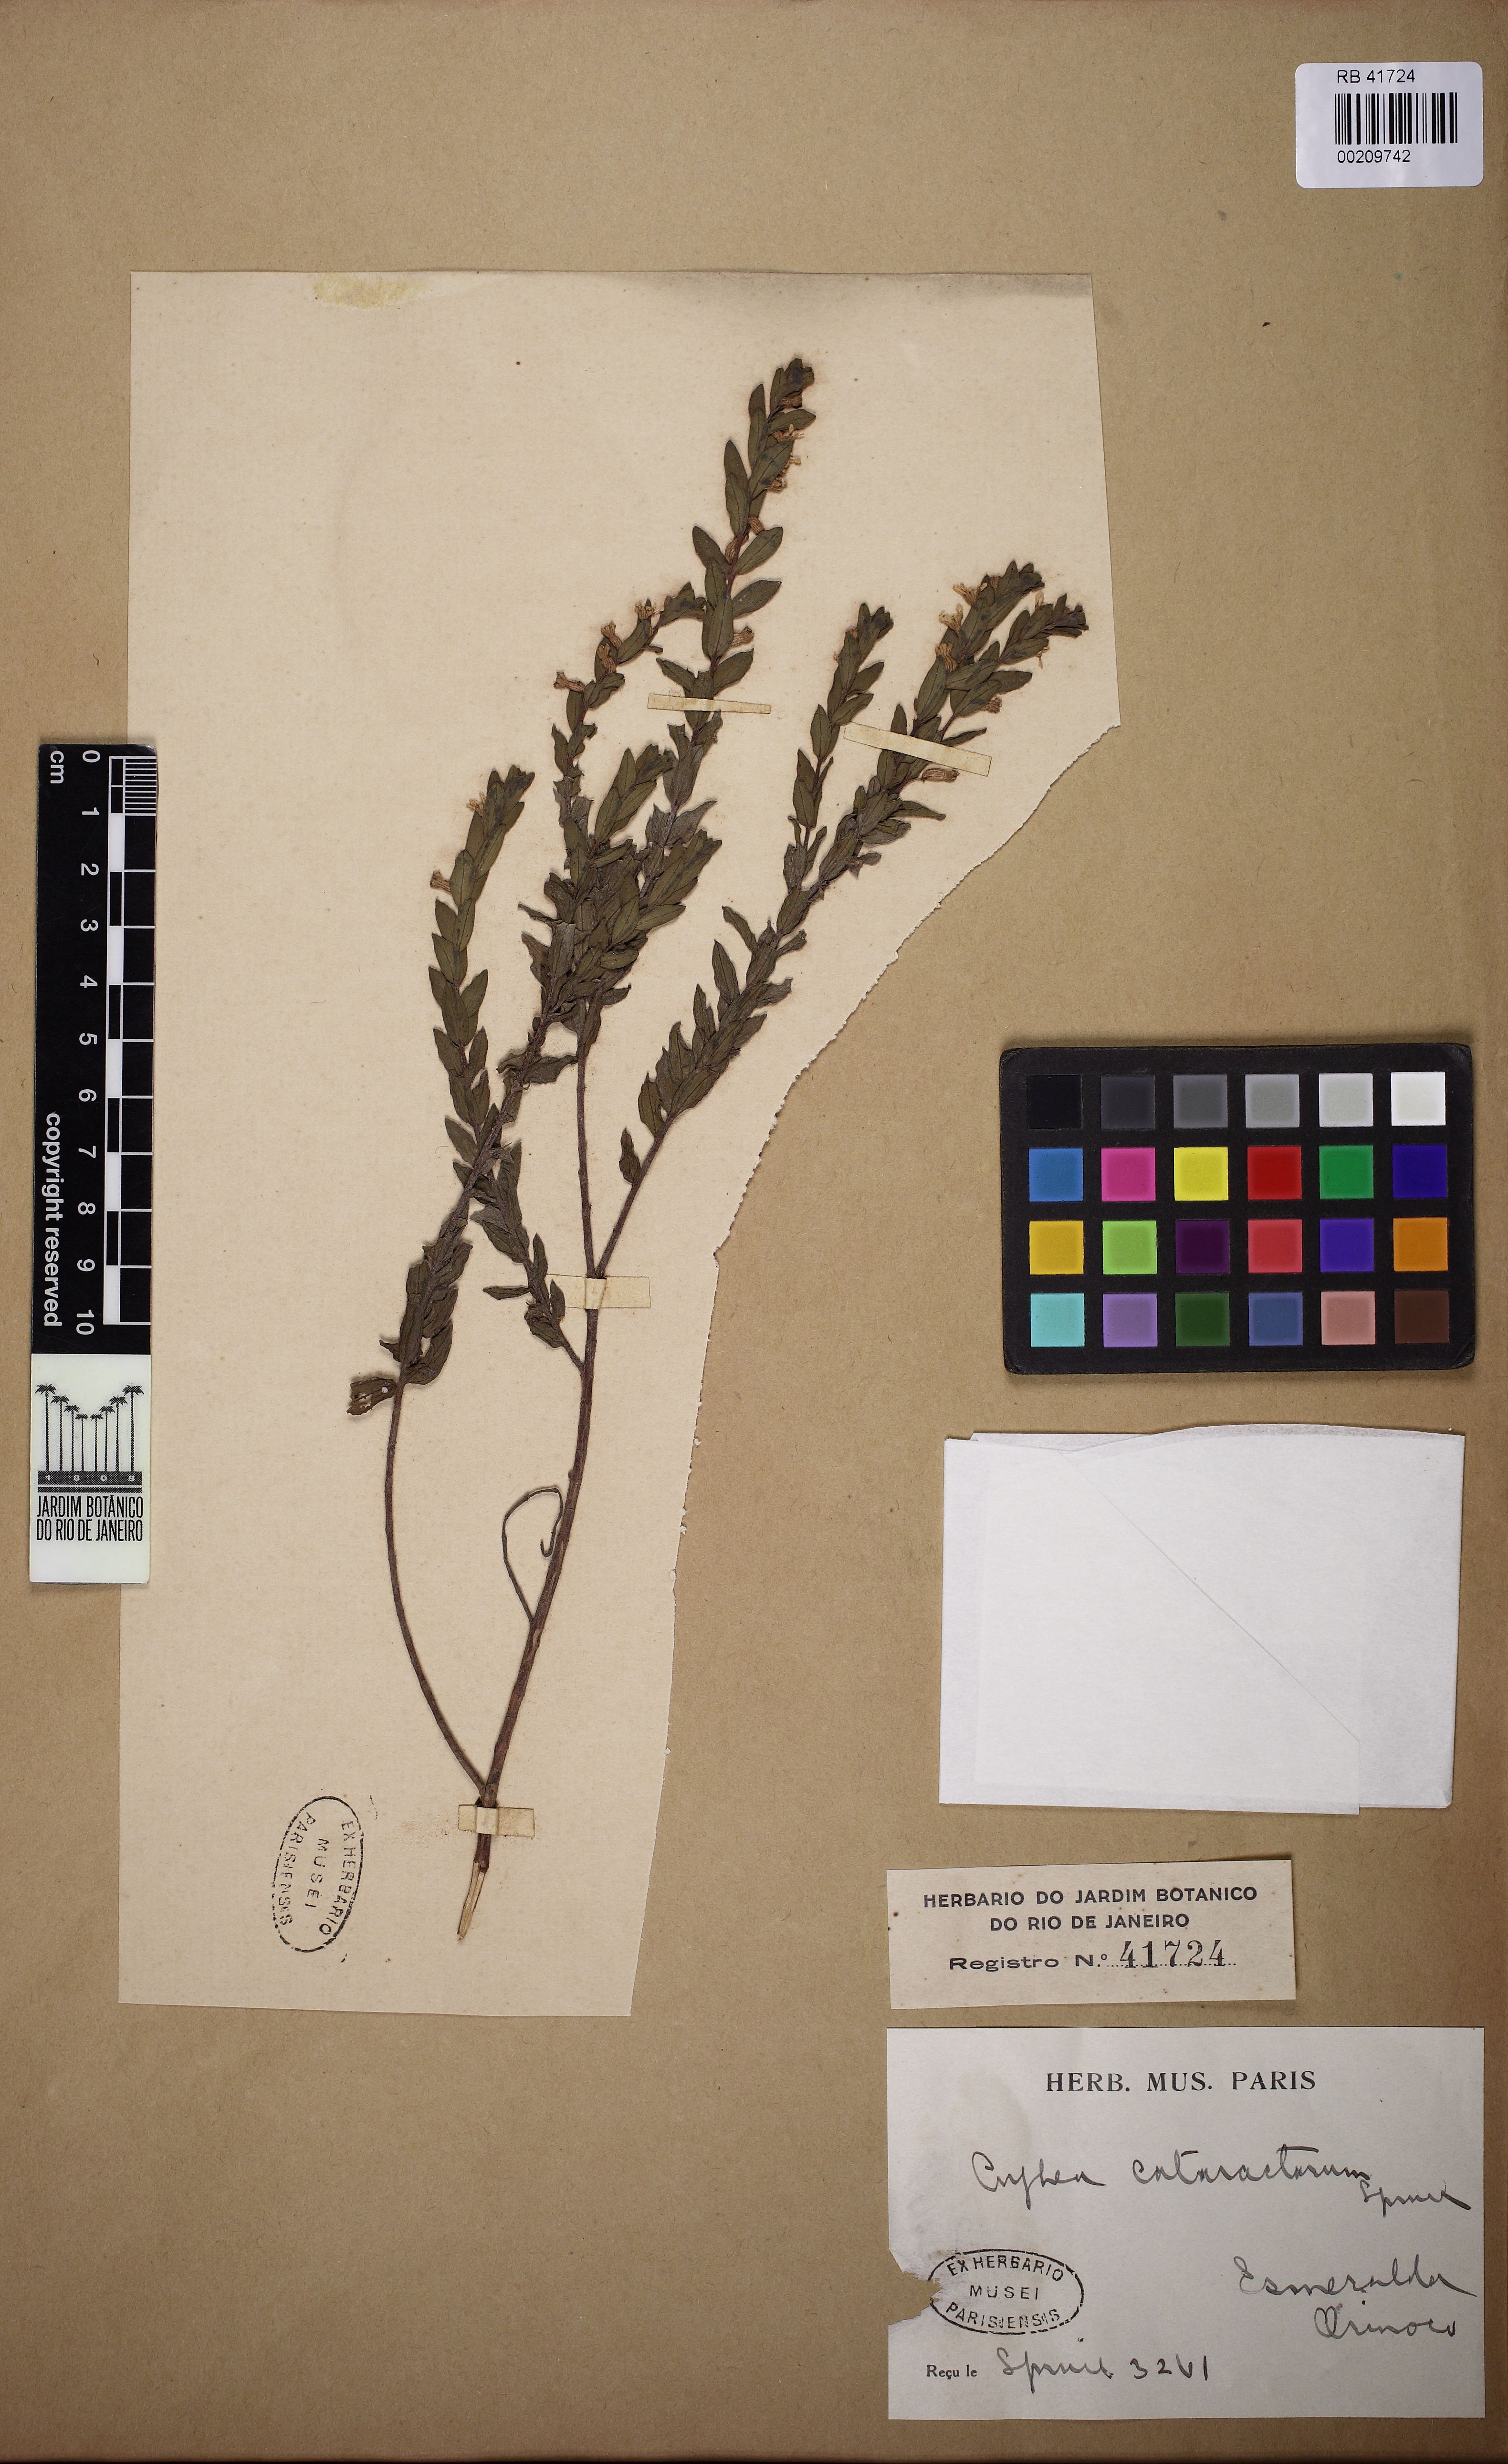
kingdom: Plantae
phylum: Tracheophyta
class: Magnoliopsida
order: Myrtales
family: Lythraceae
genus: Cuphea
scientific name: Cuphea cataractarum
